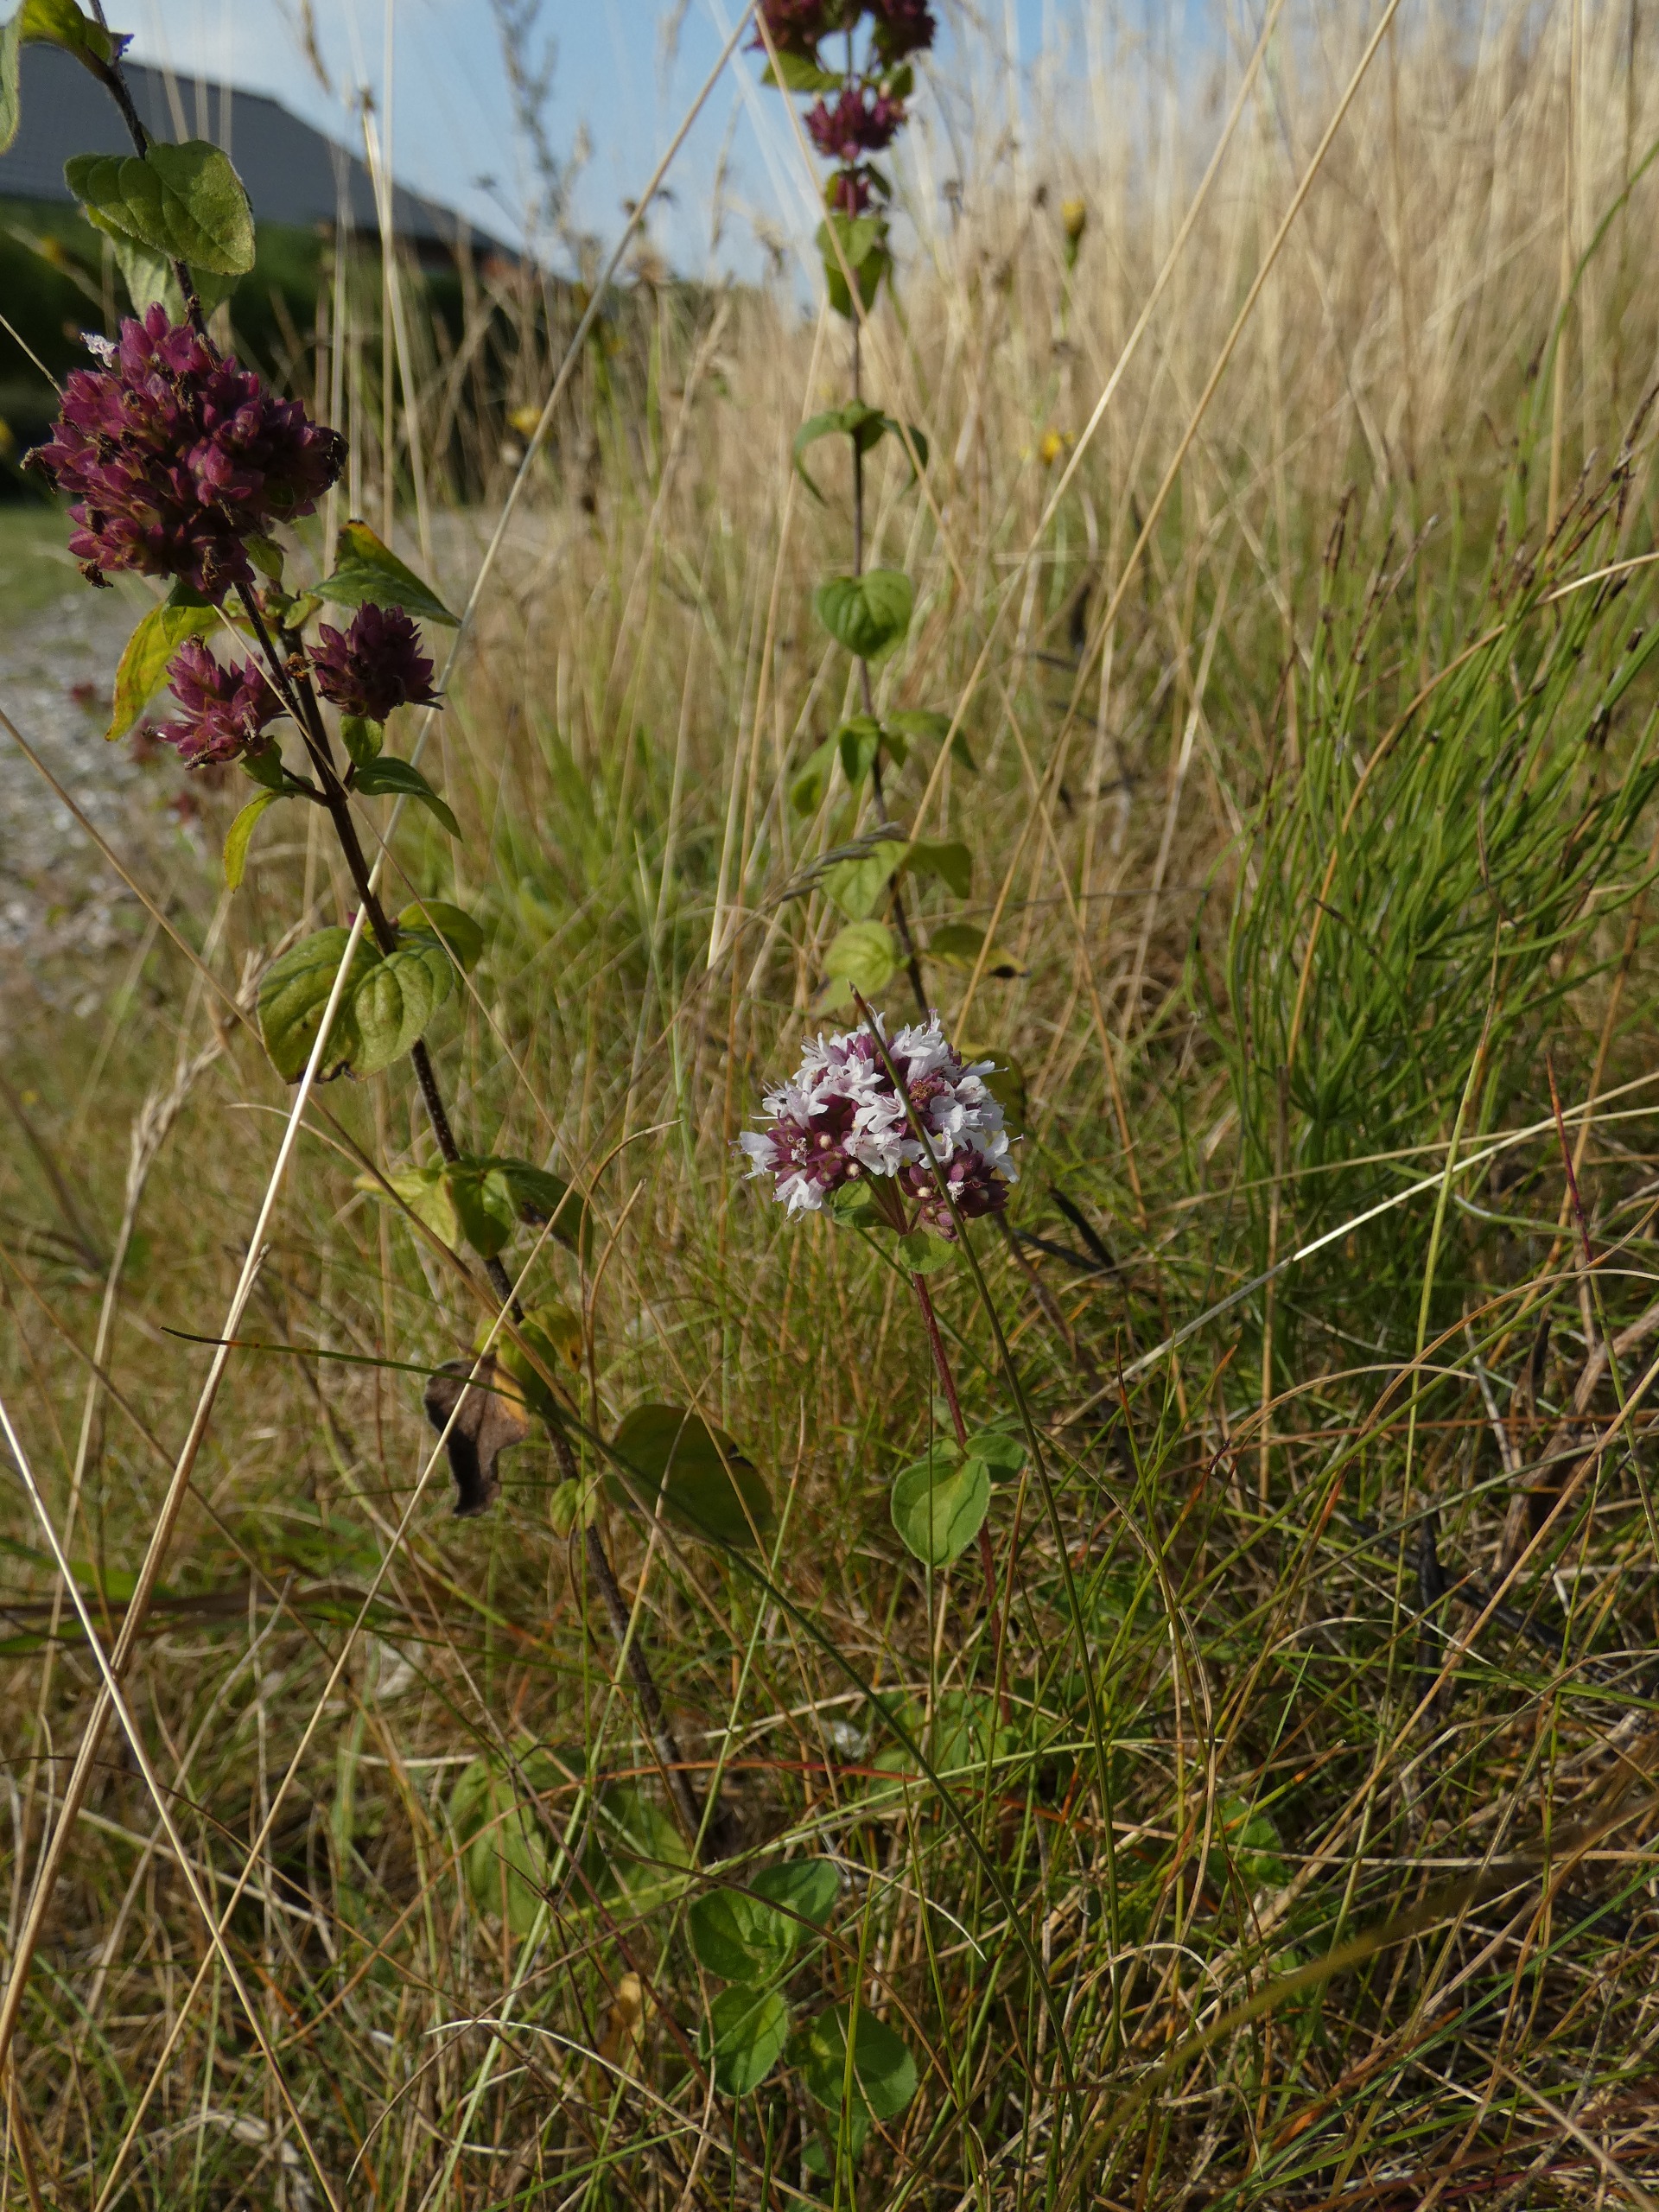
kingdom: Plantae
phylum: Tracheophyta
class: Magnoliopsida
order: Lamiales
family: Lamiaceae
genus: Origanum
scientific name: Origanum vulgare
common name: Merian
